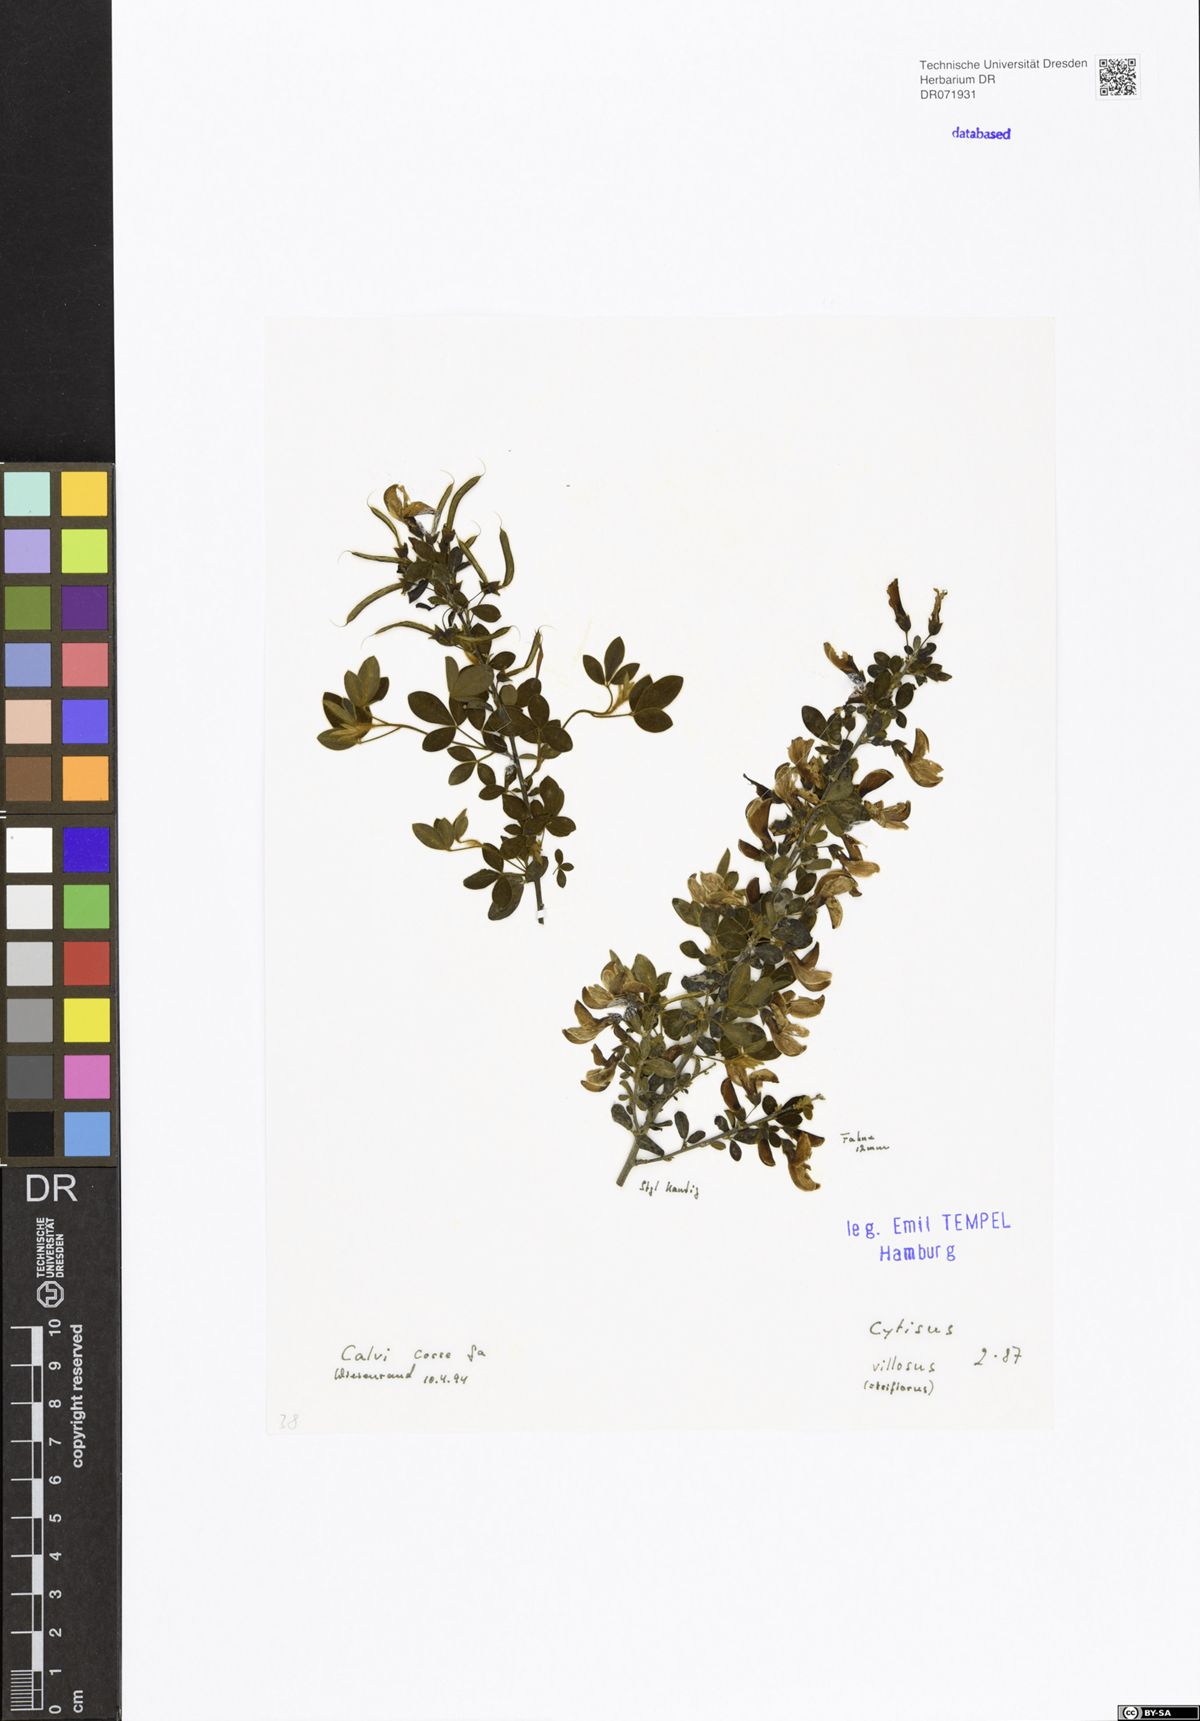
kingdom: Plantae
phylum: Tracheophyta
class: Magnoliopsida
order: Fabales
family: Fabaceae
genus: Cytisus
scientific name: Cytisus villosus
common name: Hairybroom
